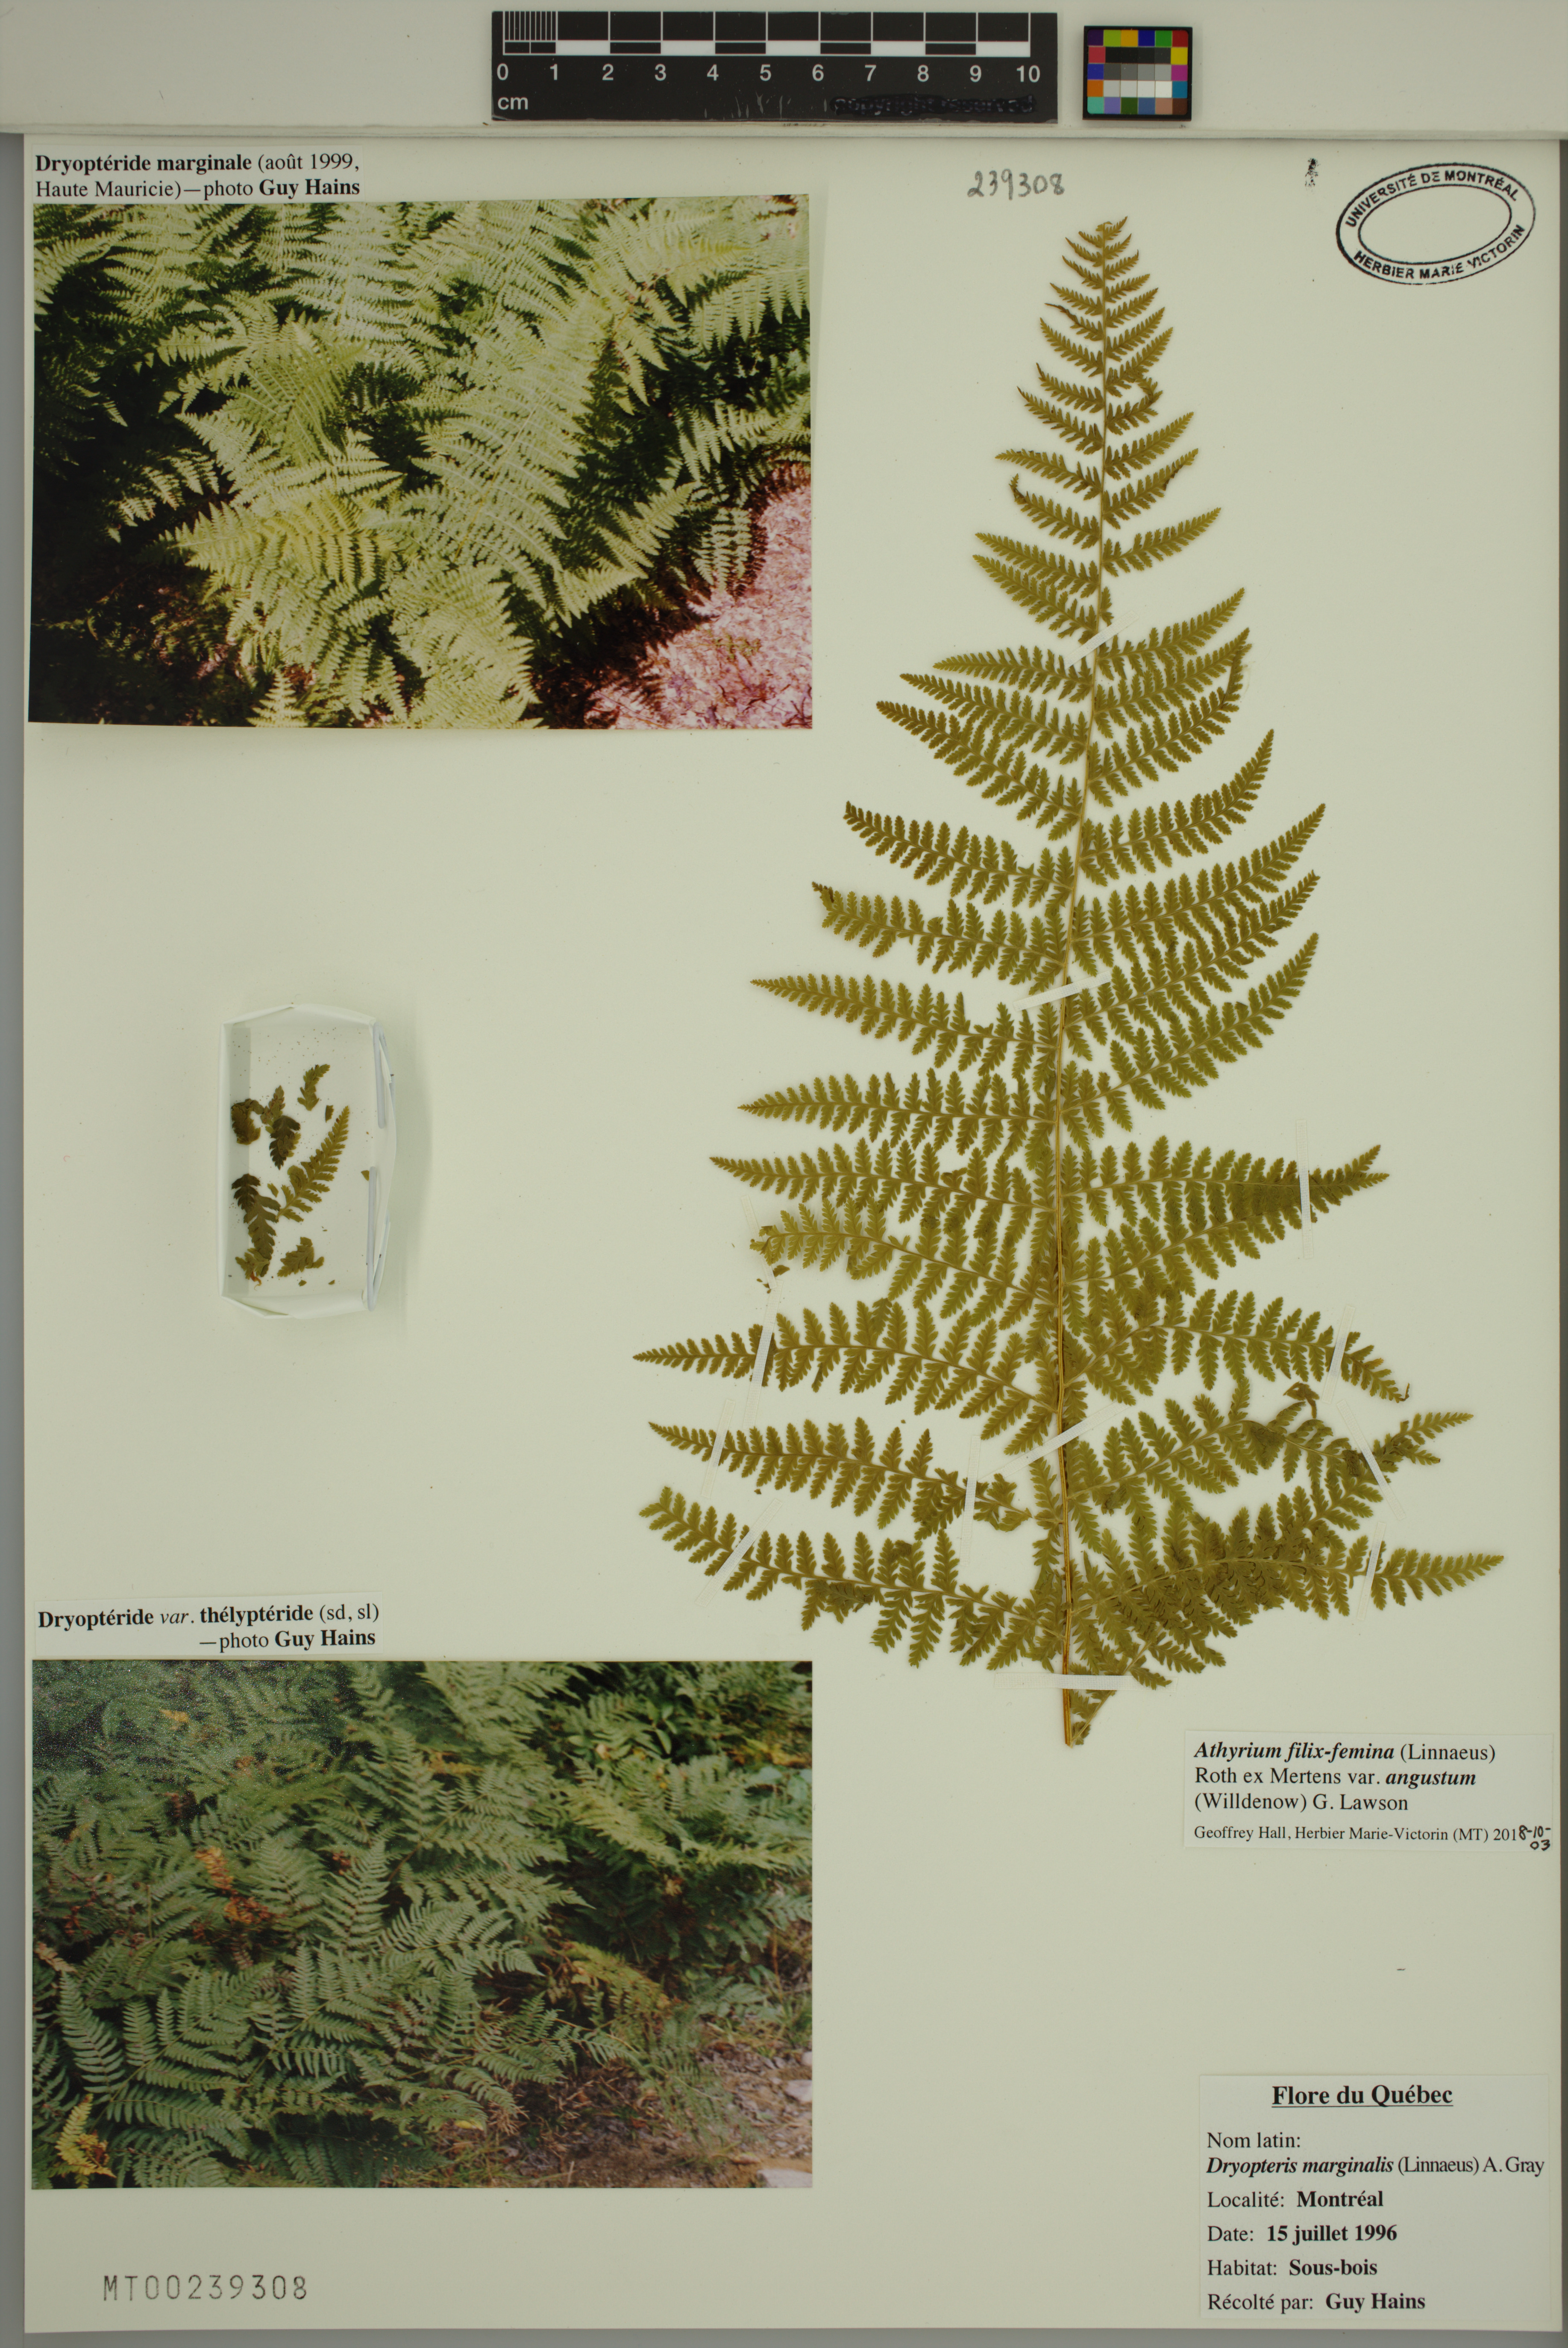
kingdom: Plantae
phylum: Tracheophyta
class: Polypodiopsida
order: Polypodiales
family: Athyriaceae
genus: Athyrium
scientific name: Athyrium angustum
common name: Northern lady fern
